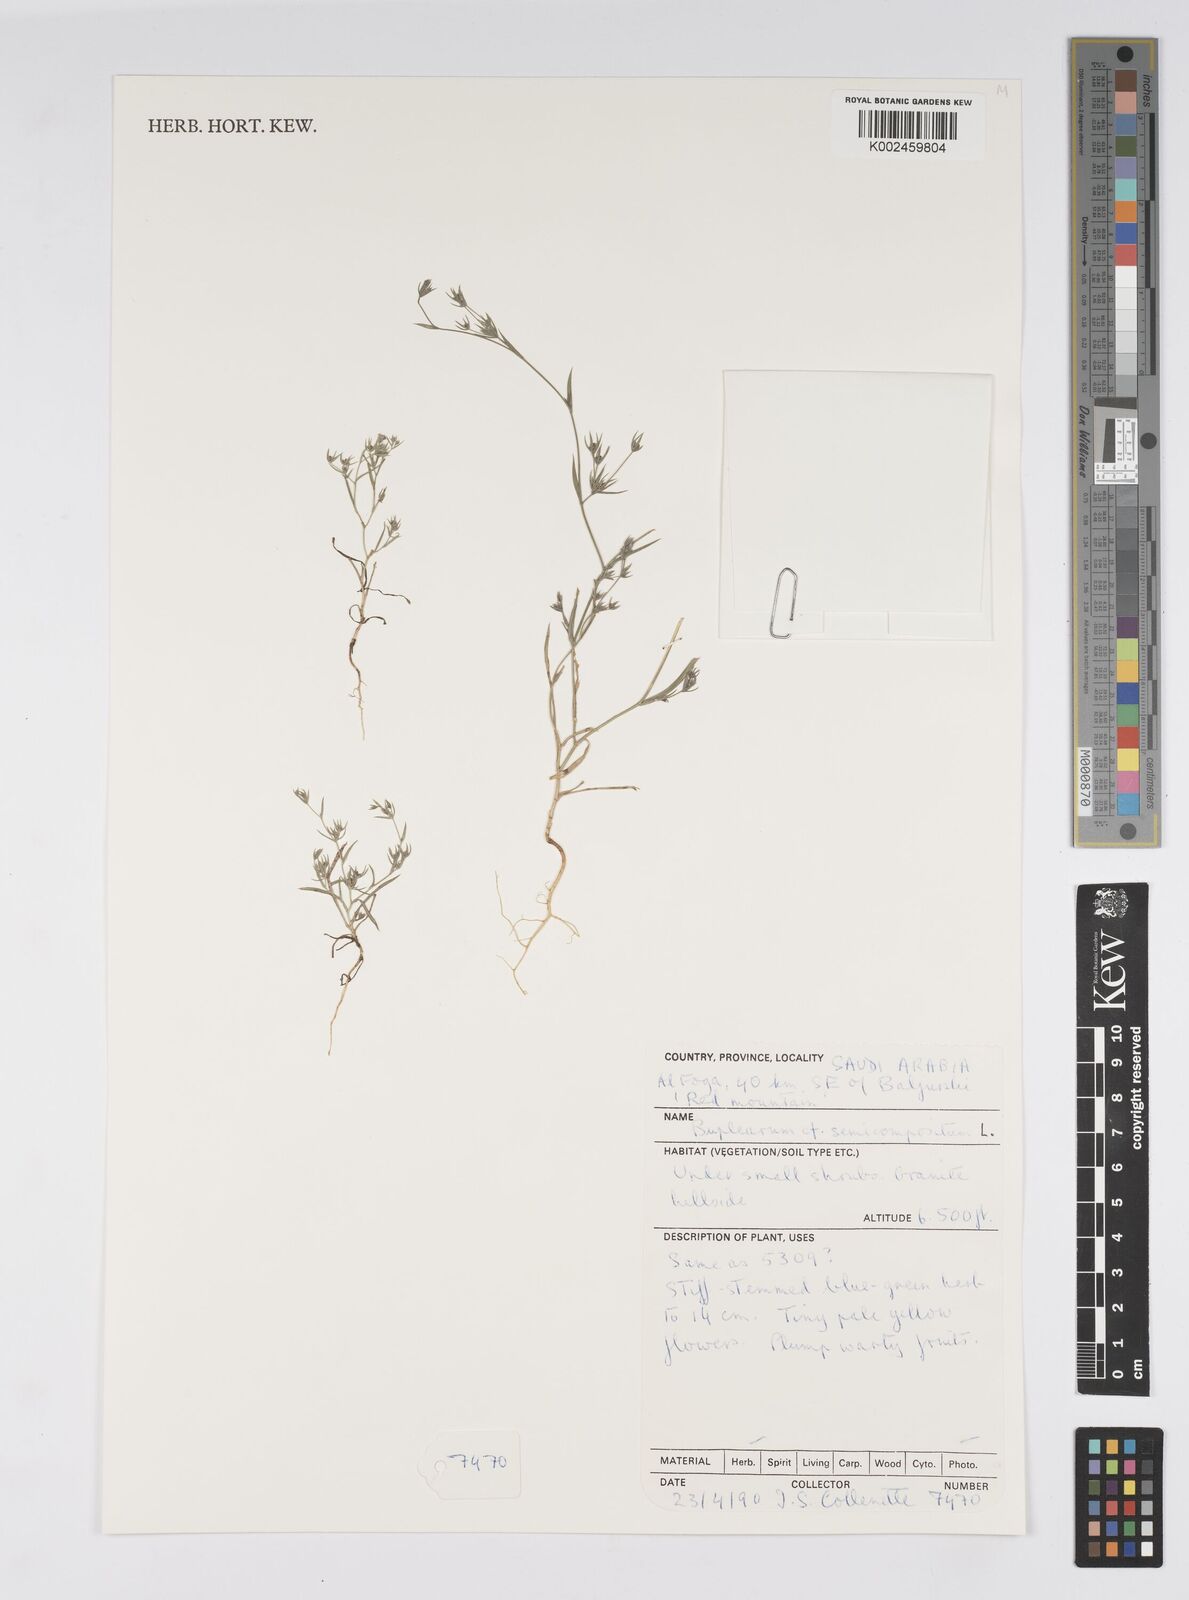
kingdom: Plantae
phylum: Tracheophyta
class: Magnoliopsida
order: Apiales
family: Apiaceae
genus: Bupleurum
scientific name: Bupleurum semicompositum
